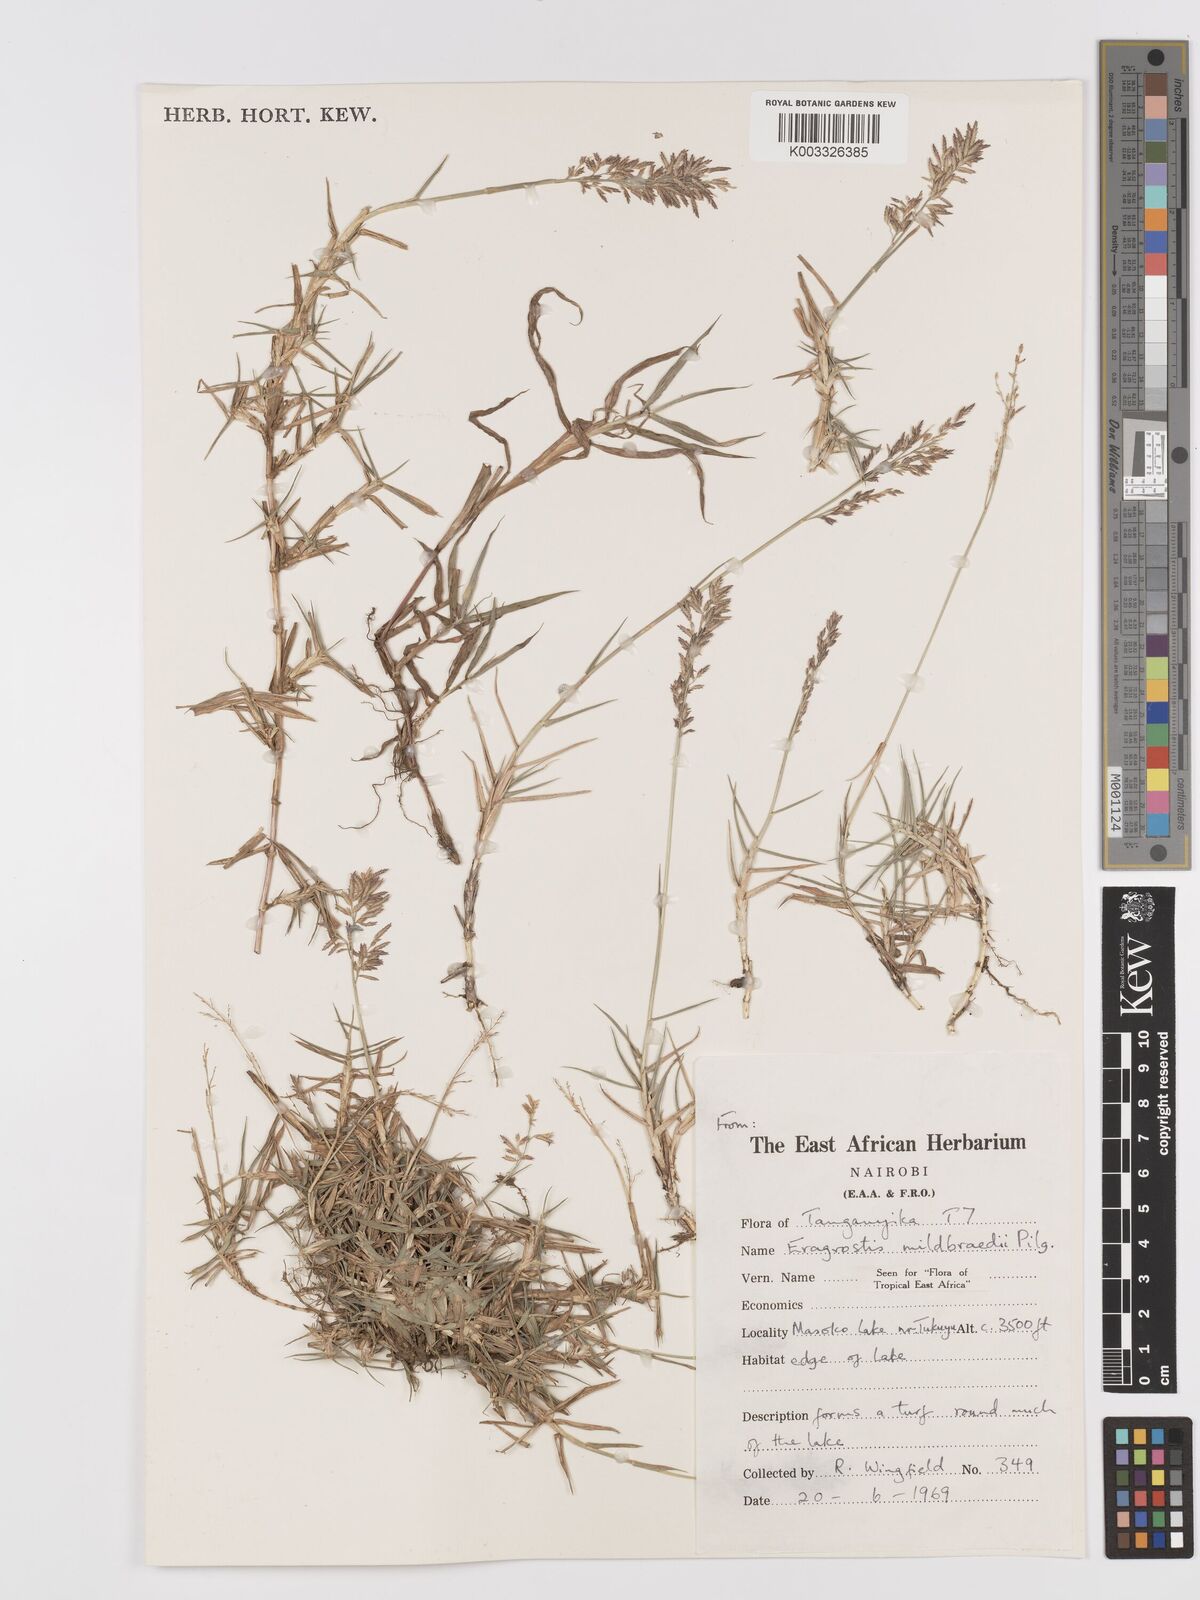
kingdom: Plantae
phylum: Tracheophyta
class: Liliopsida
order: Poales
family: Poaceae
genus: Eragrostis
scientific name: Eragrostis mildbraedii
